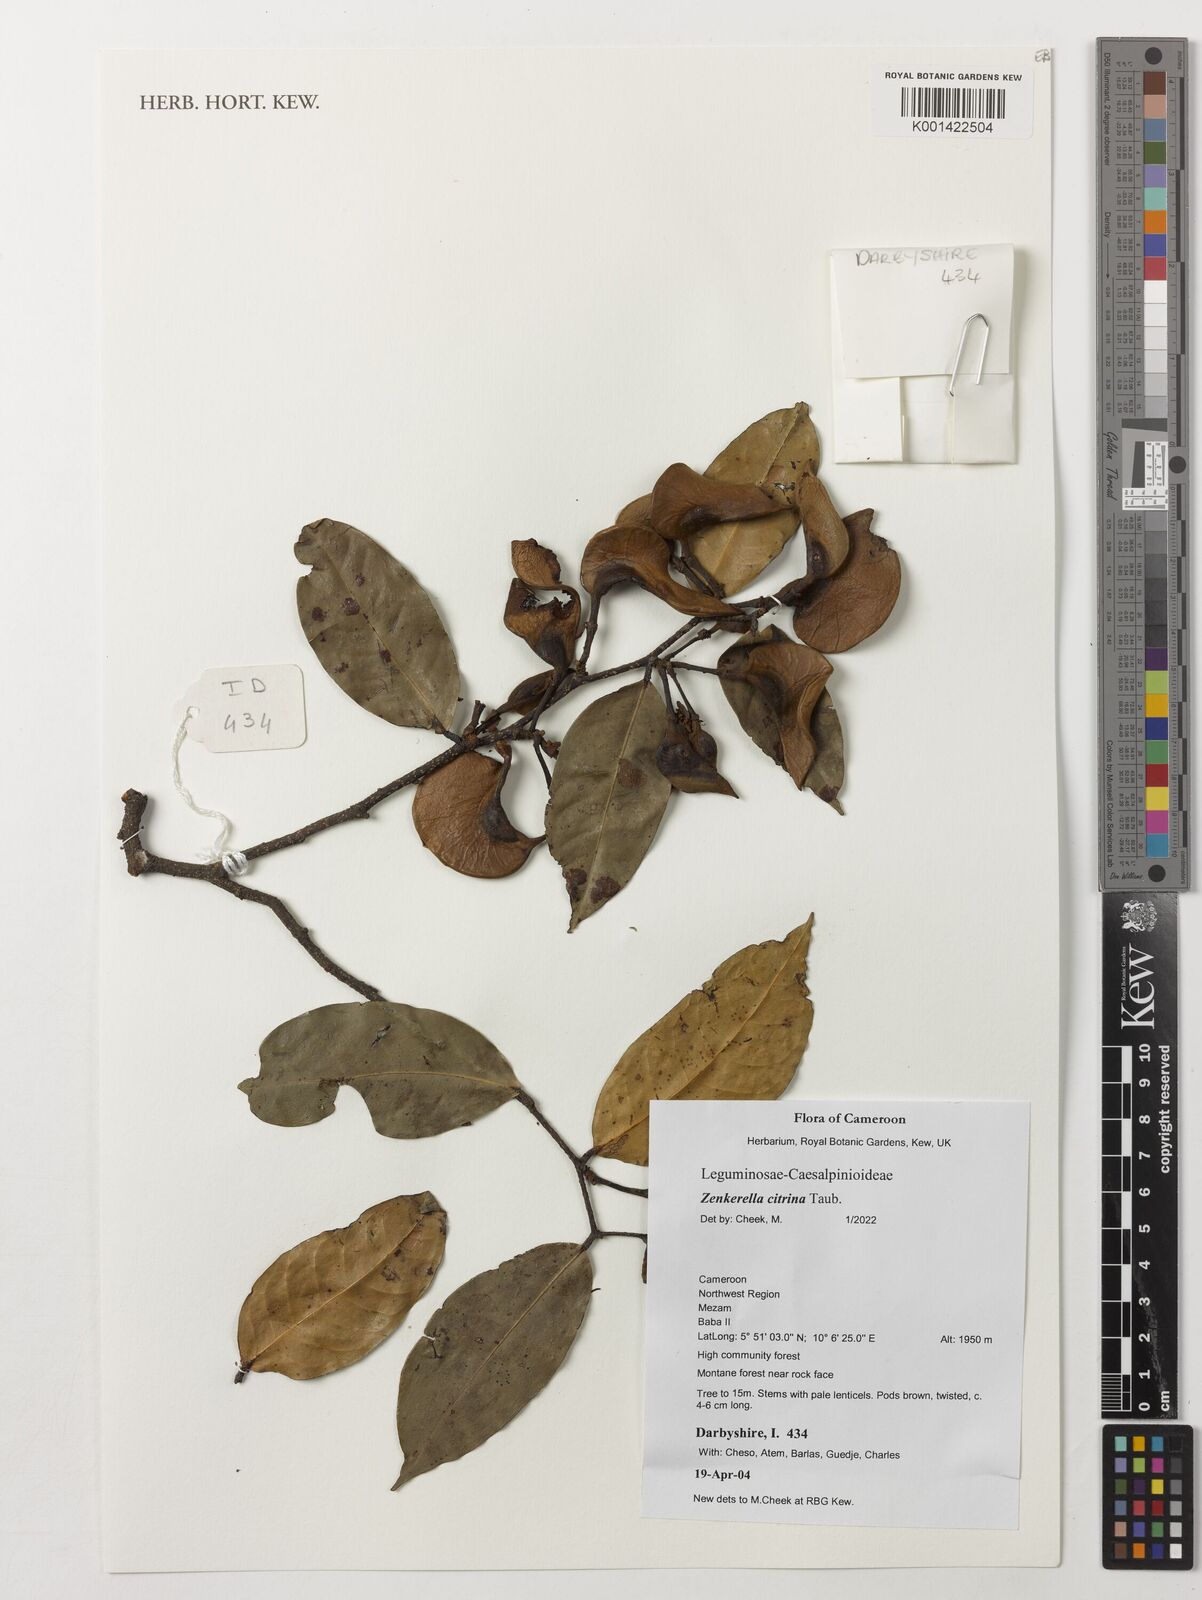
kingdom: Plantae
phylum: Tracheophyta
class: Magnoliopsida
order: Fabales
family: Fabaceae
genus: Zenkerella
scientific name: Zenkerella citrina
